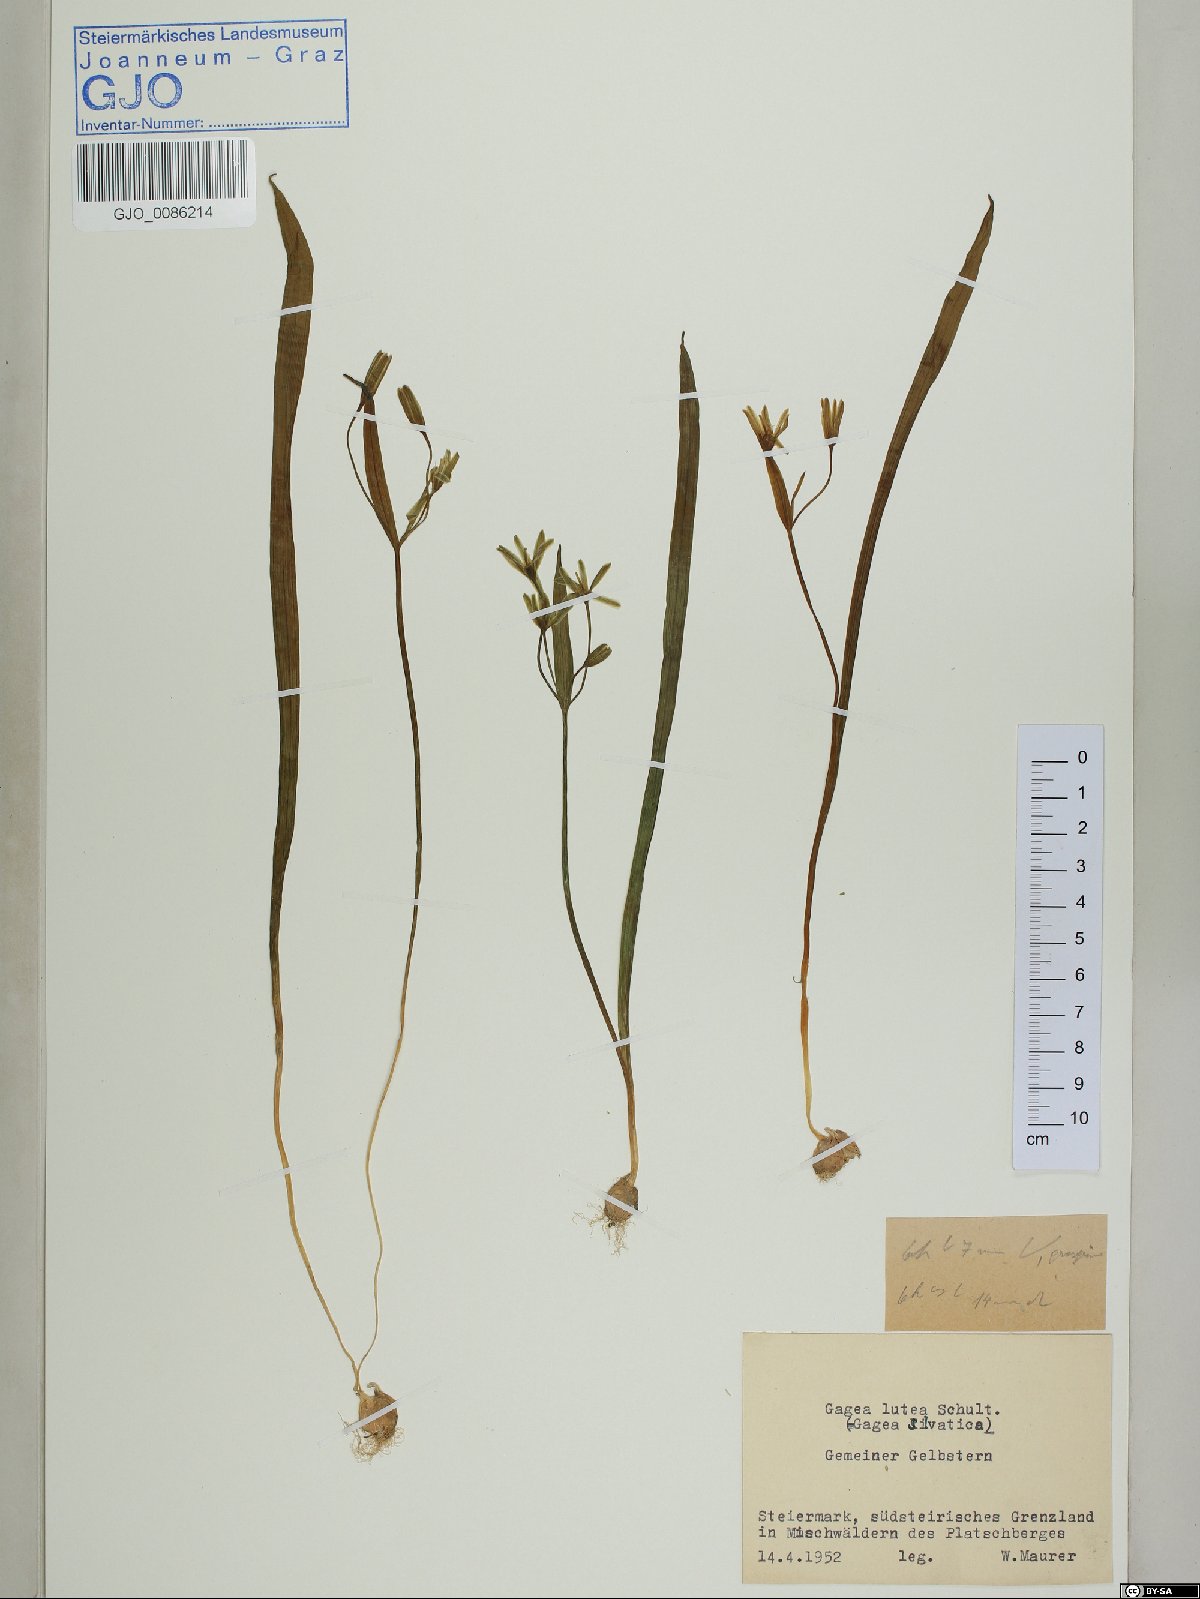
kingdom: Plantae
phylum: Tracheophyta
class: Liliopsida
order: Liliales
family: Liliaceae
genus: Gagea
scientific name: Gagea lutea
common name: Yellow star-of-bethlehem
